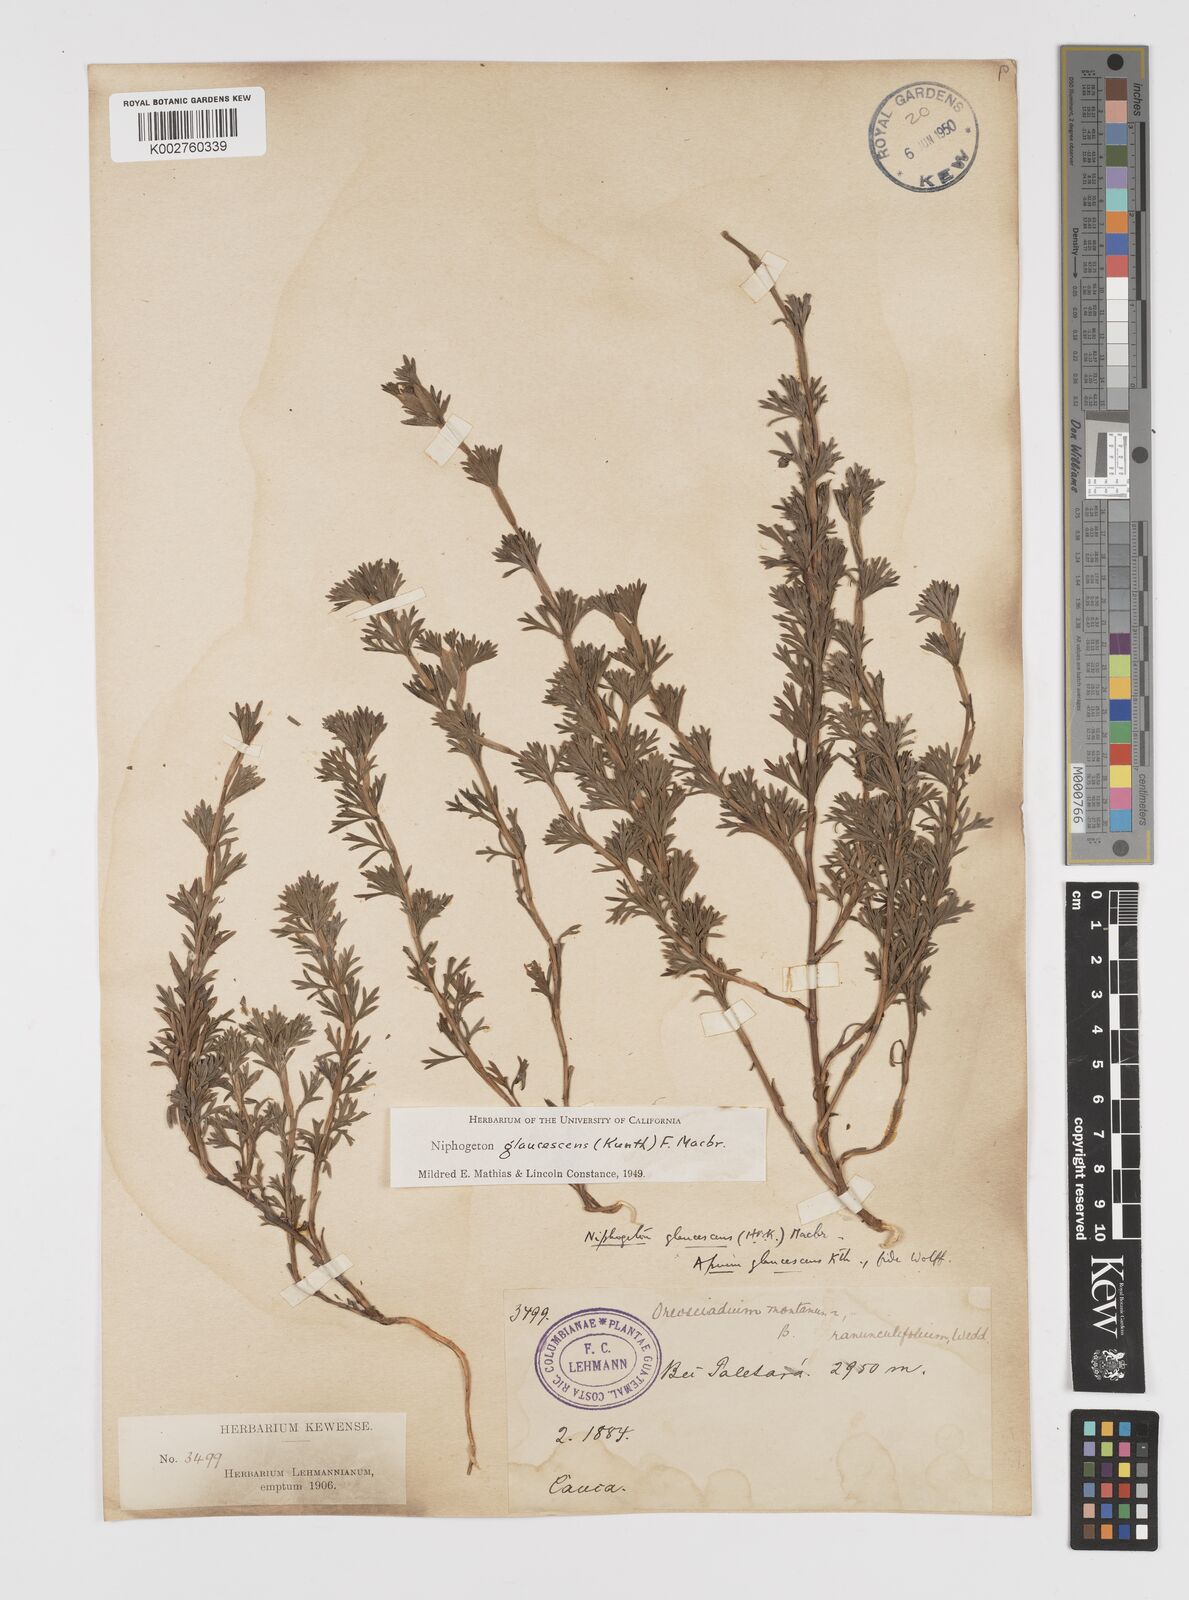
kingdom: Plantae
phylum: Tracheophyta
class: Magnoliopsida
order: Apiales
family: Apiaceae
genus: Niphogeton
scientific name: Niphogeton glaucescens
